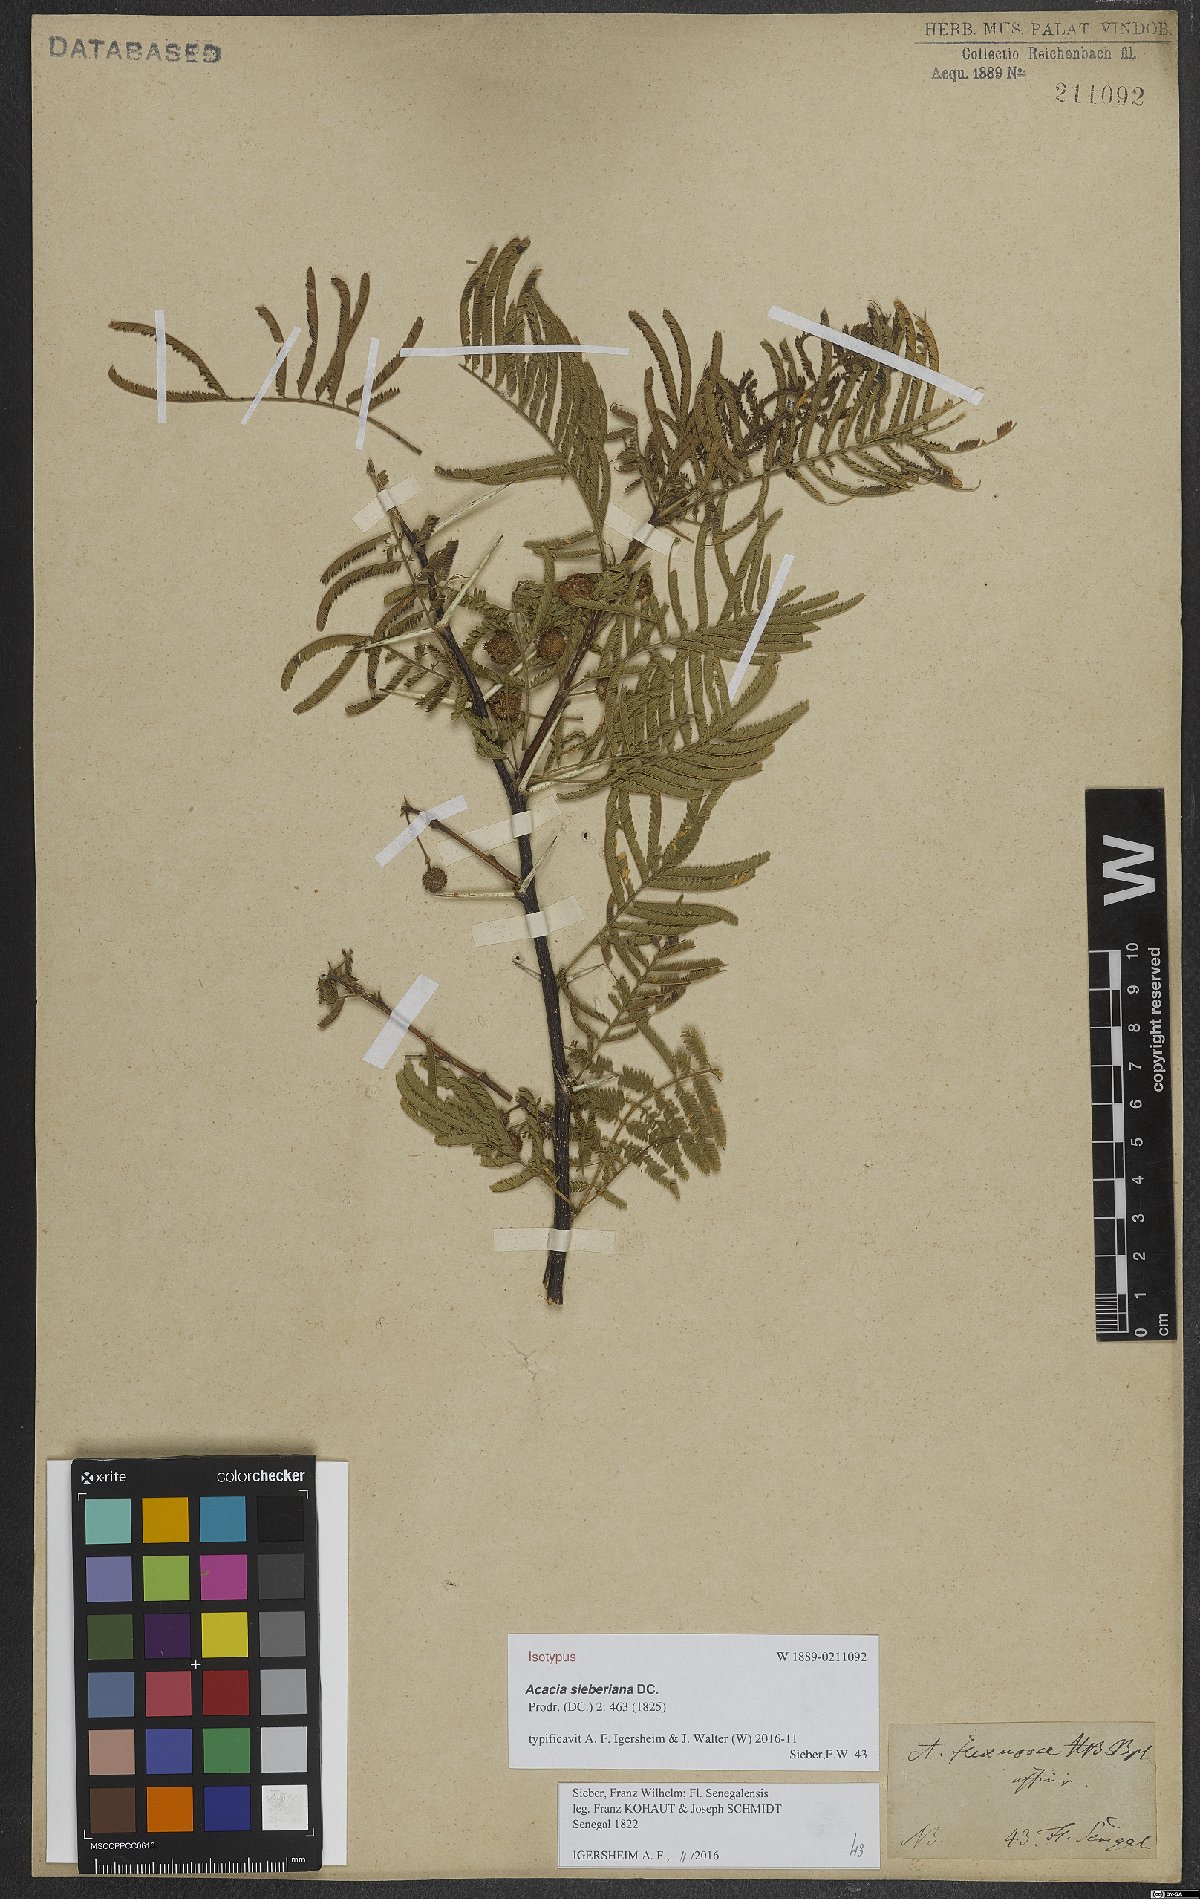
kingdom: Plantae
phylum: Tracheophyta
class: Magnoliopsida
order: Fabales
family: Fabaceae
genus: Vachellia
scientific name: Vachellia sieberiana
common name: Flat-topped thorn
